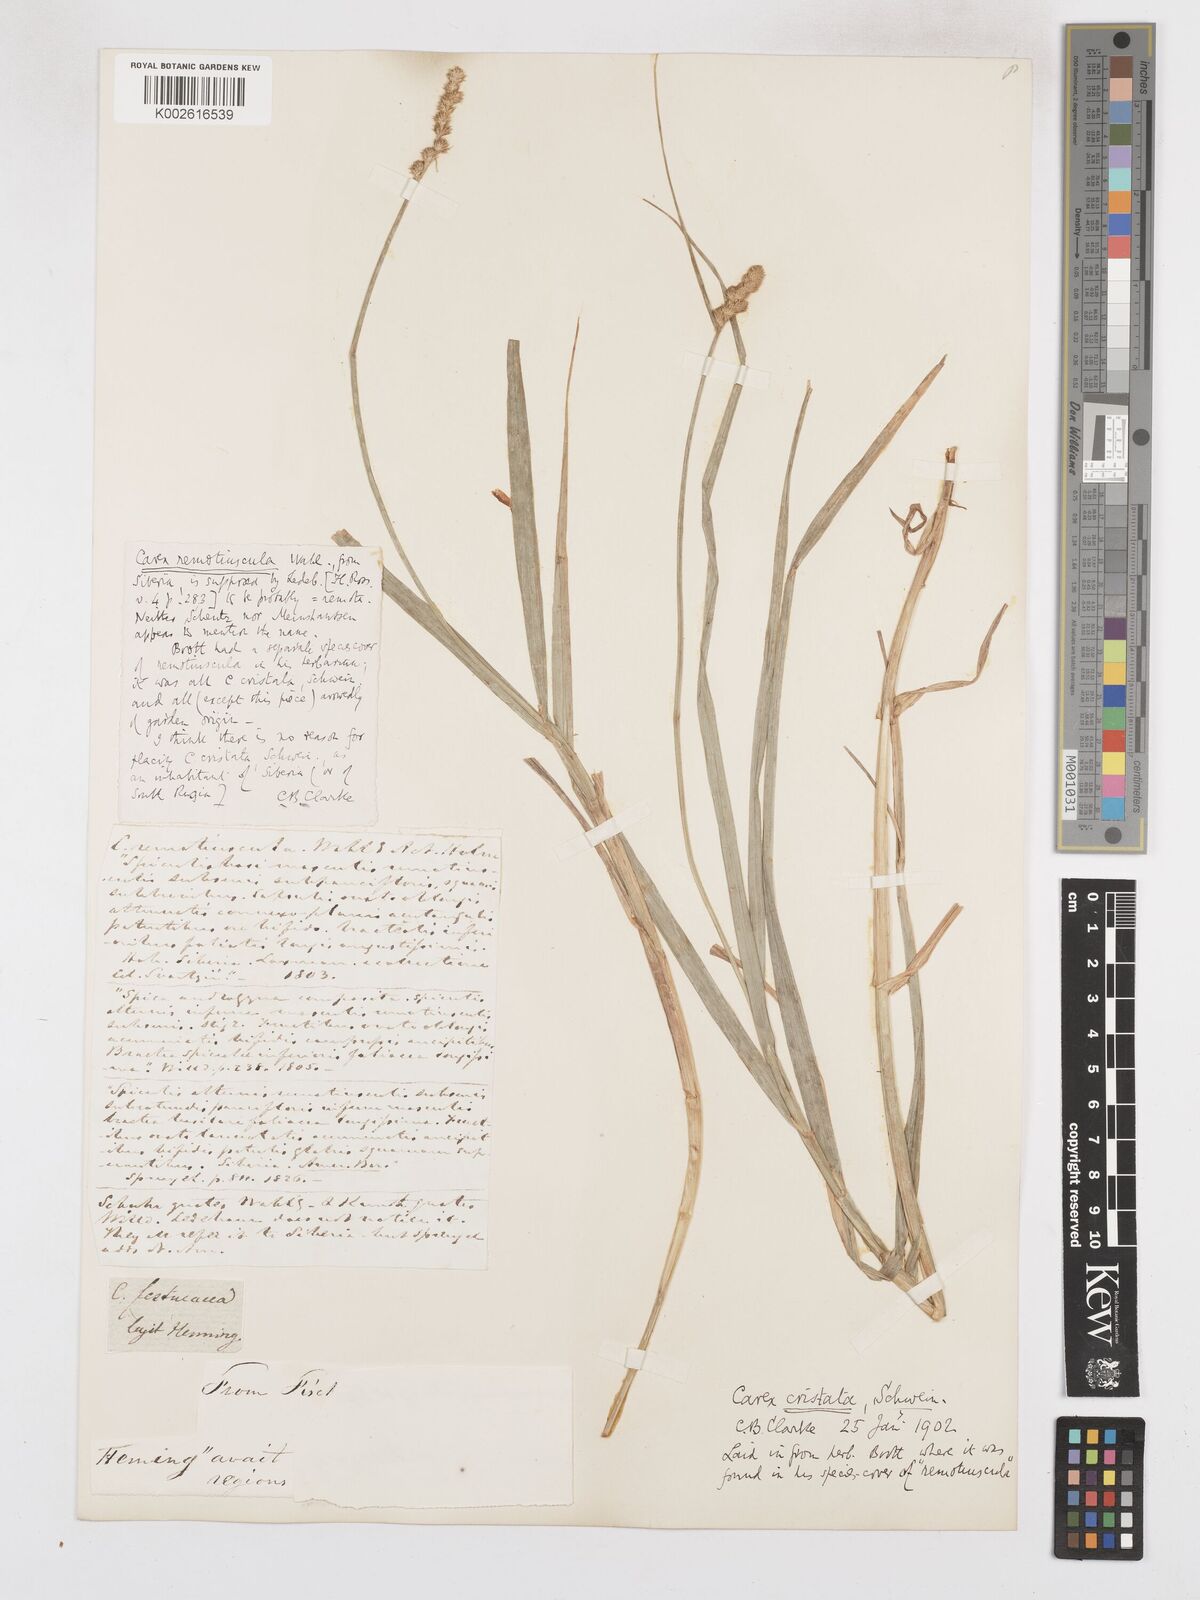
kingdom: Plantae
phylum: Tracheophyta
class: Liliopsida
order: Poales
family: Cyperaceae
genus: Carex
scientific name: Carex cristatella
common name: Crested oval sedge
